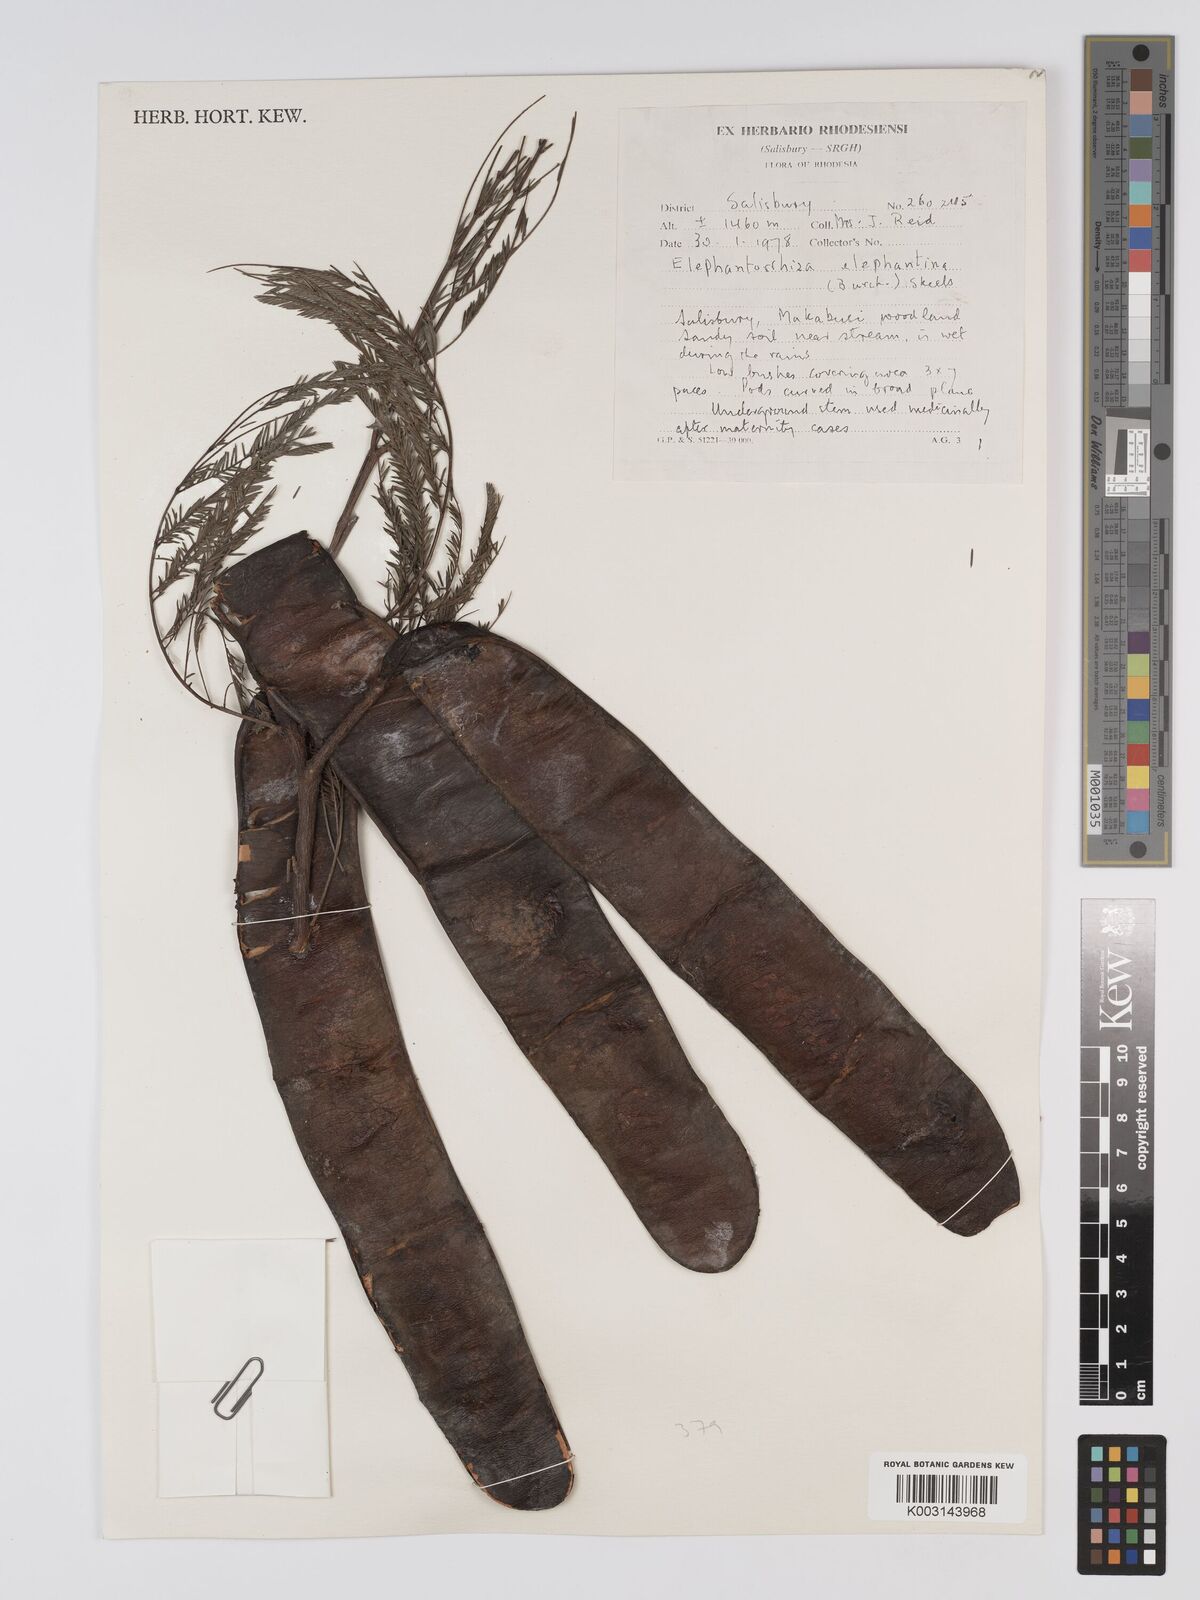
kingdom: Plantae
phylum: Tracheophyta
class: Magnoliopsida
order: Fabales
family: Fabaceae
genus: Elephantorrhiza
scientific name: Elephantorrhiza elephantina
